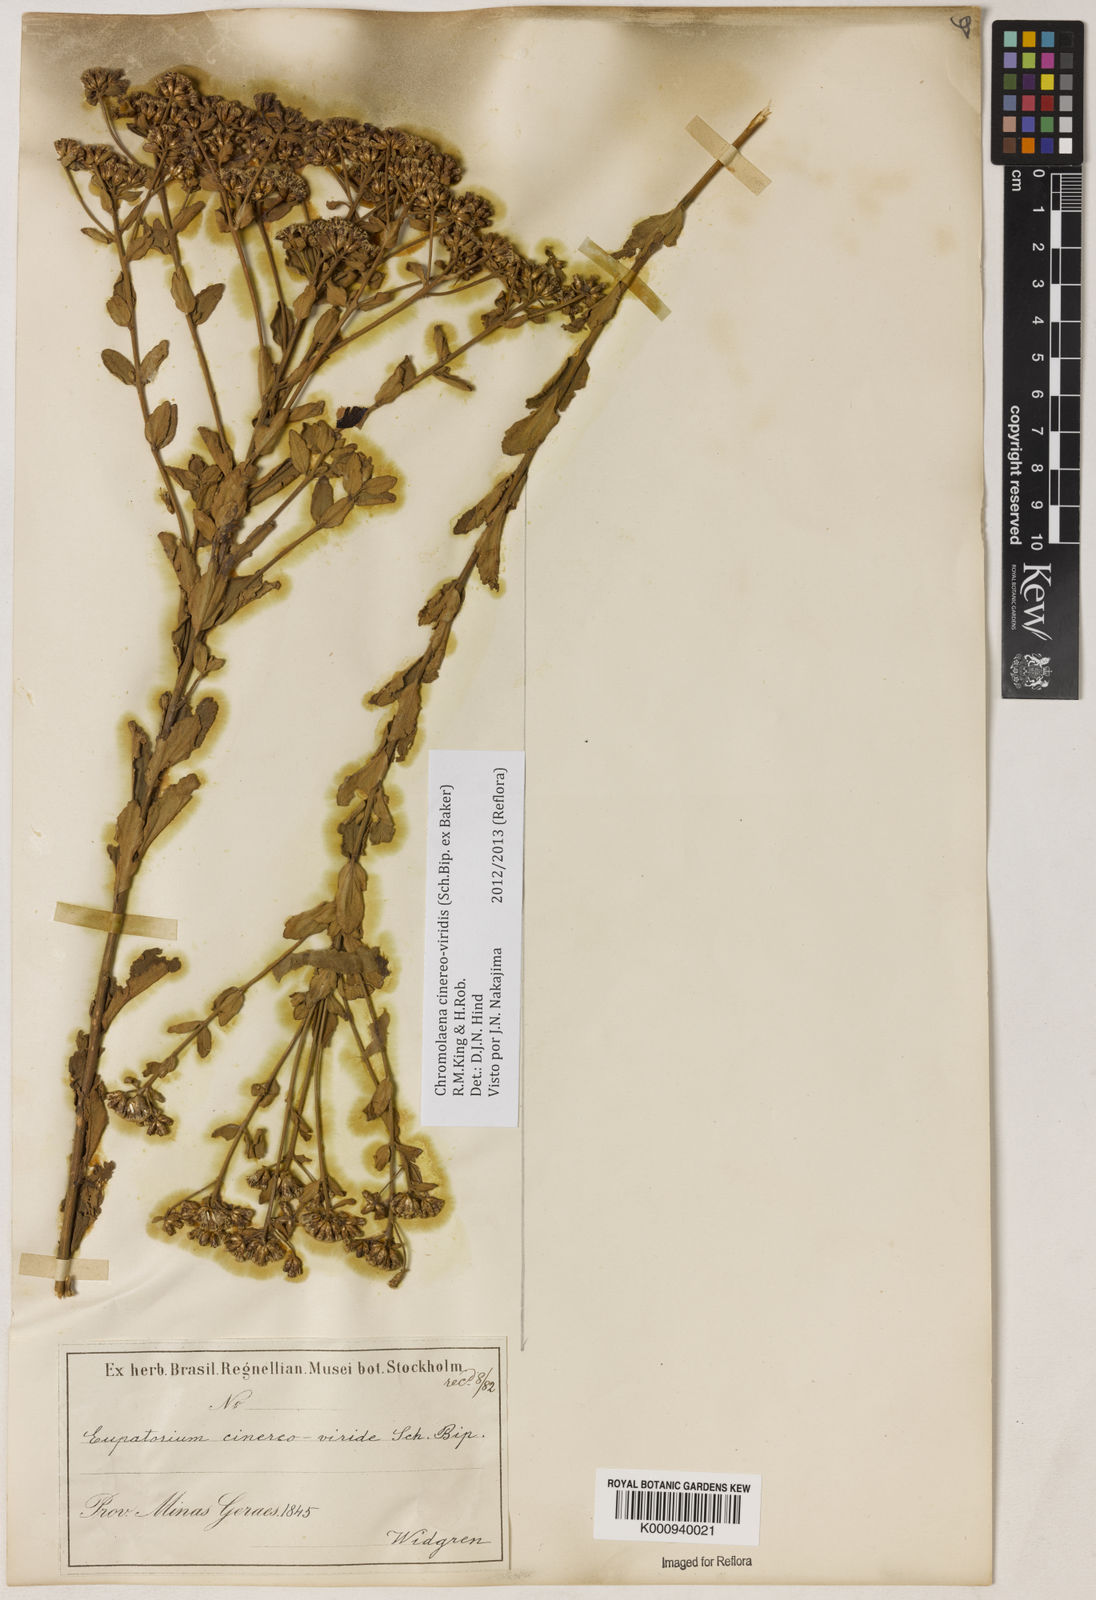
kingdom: Plantae
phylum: Tracheophyta
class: Magnoliopsida
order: Asterales
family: Asteraceae
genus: Chromolaena
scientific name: Chromolaena cinereoviridis
